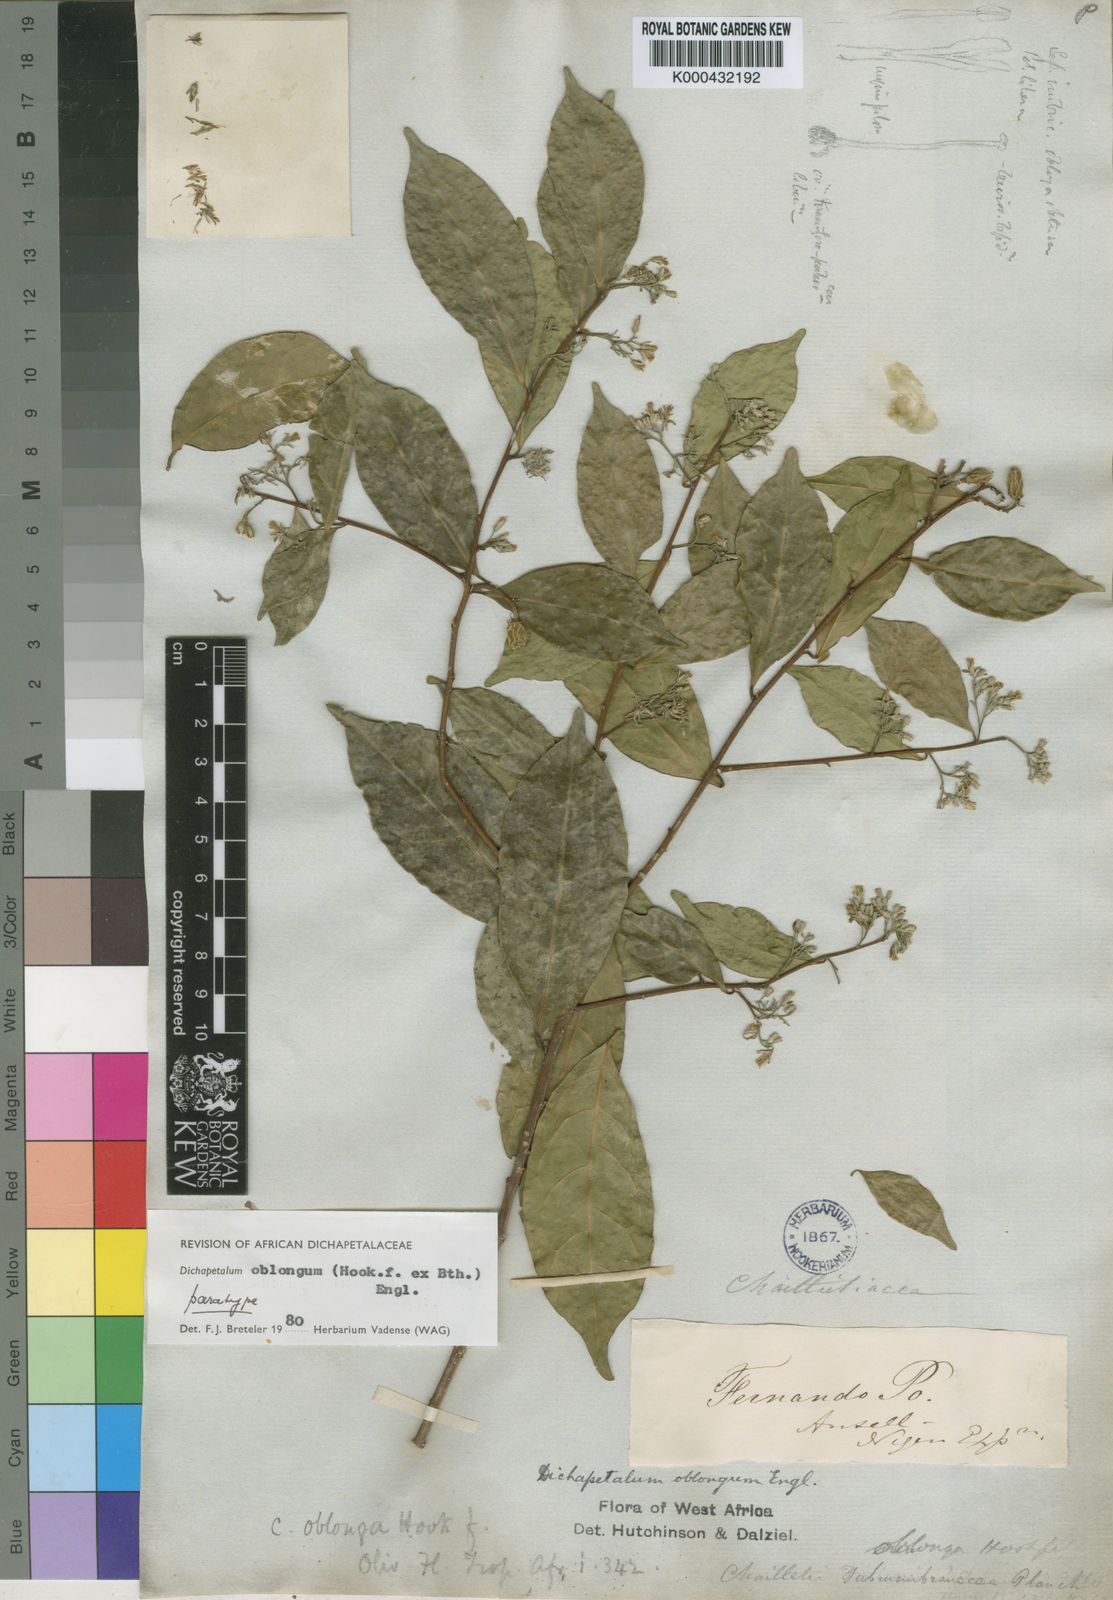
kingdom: Plantae
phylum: Tracheophyta
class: Magnoliopsida
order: Malpighiales
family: Dichapetalaceae
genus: Dichapetalum
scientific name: Dichapetalum oblongum
